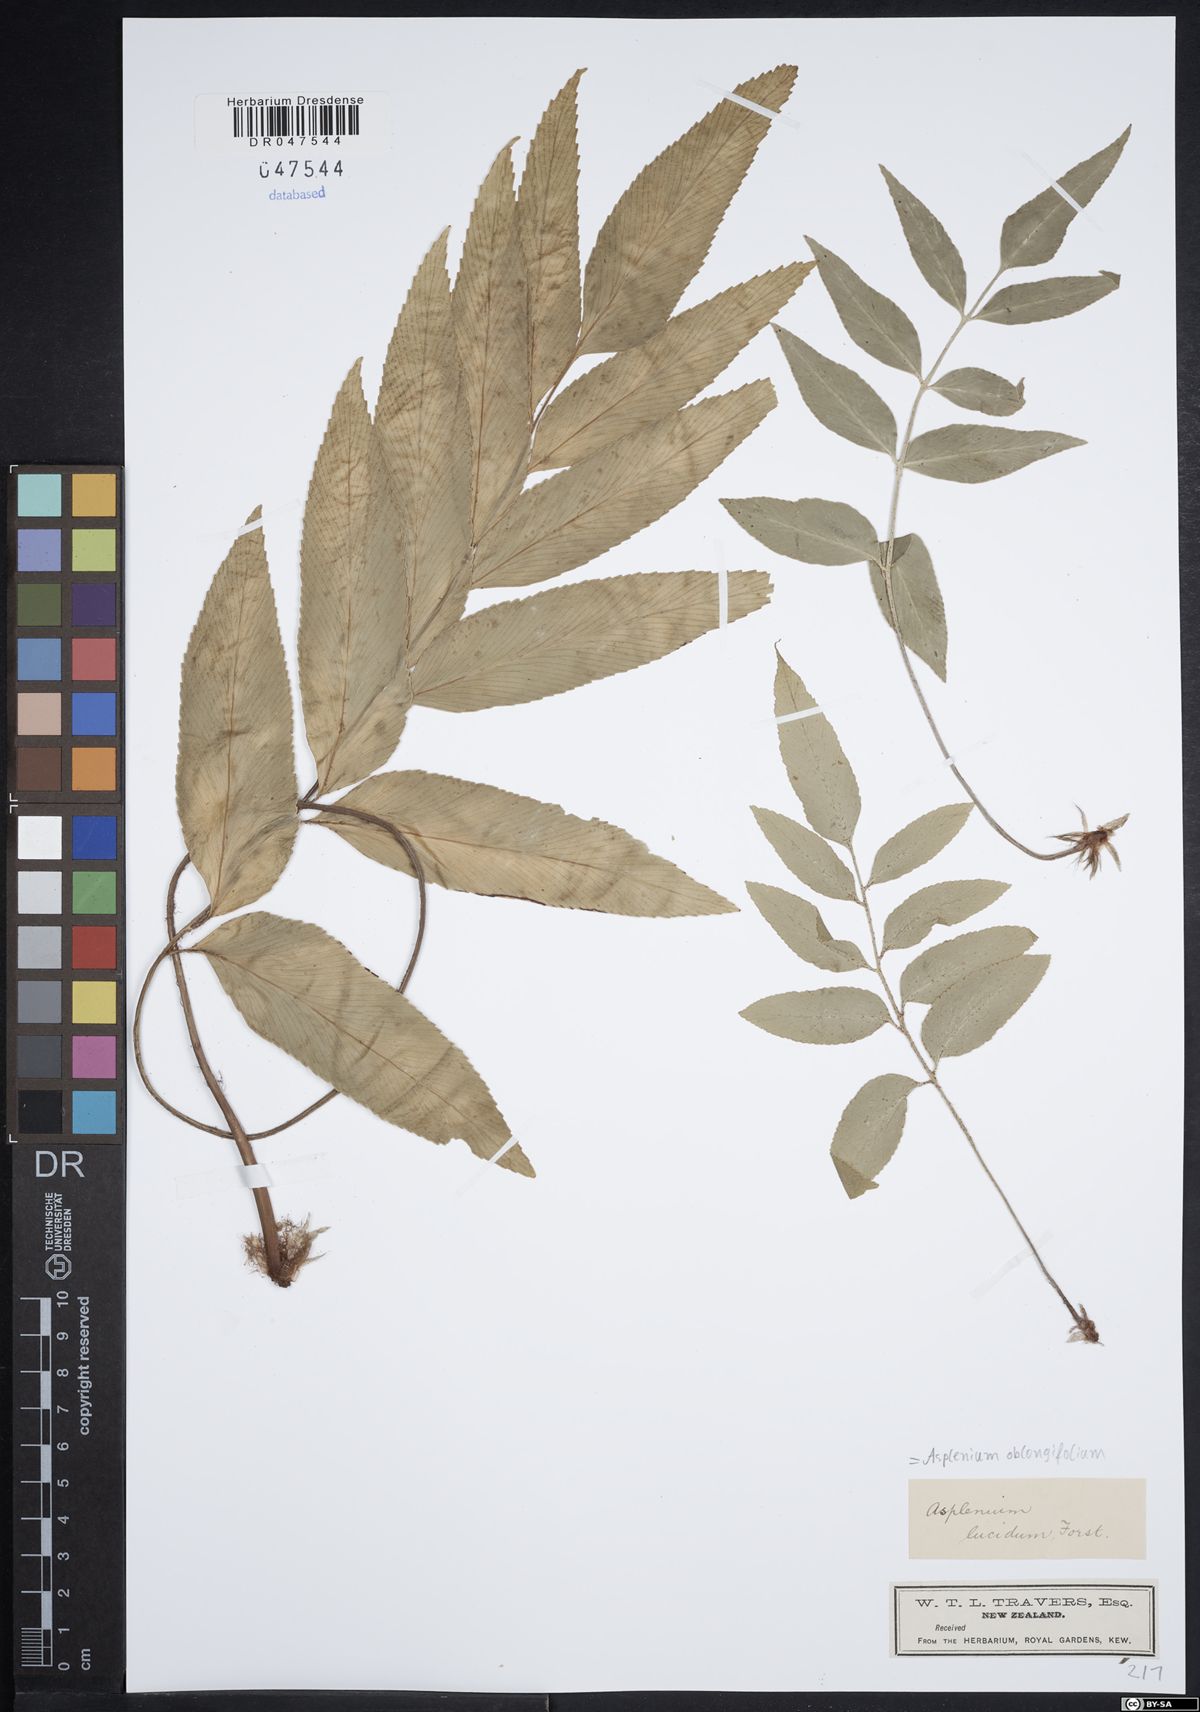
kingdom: Plantae
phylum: Tracheophyta
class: Polypodiopsida
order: Polypodiales
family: Aspleniaceae
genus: Asplenium
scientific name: Asplenium oblongifolium
